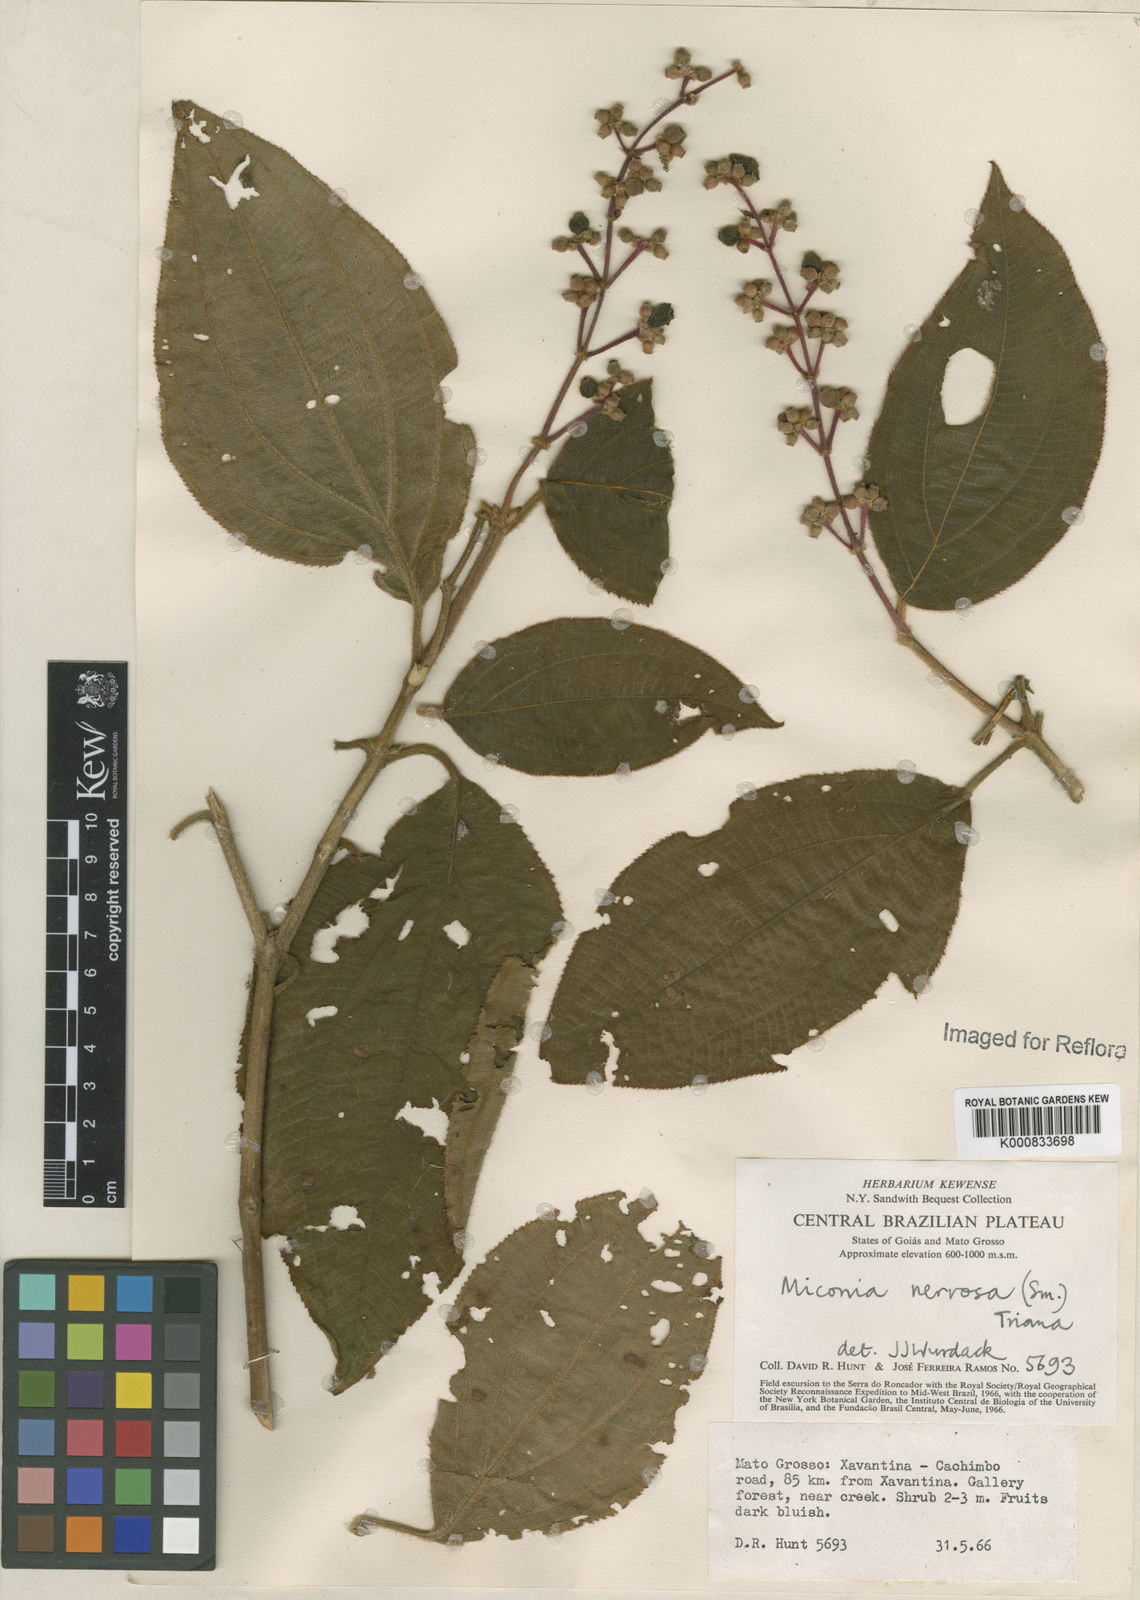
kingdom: Plantae
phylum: Tracheophyta
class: Magnoliopsida
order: Myrtales
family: Melastomataceae
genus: Miconia
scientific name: Miconia nervosa
